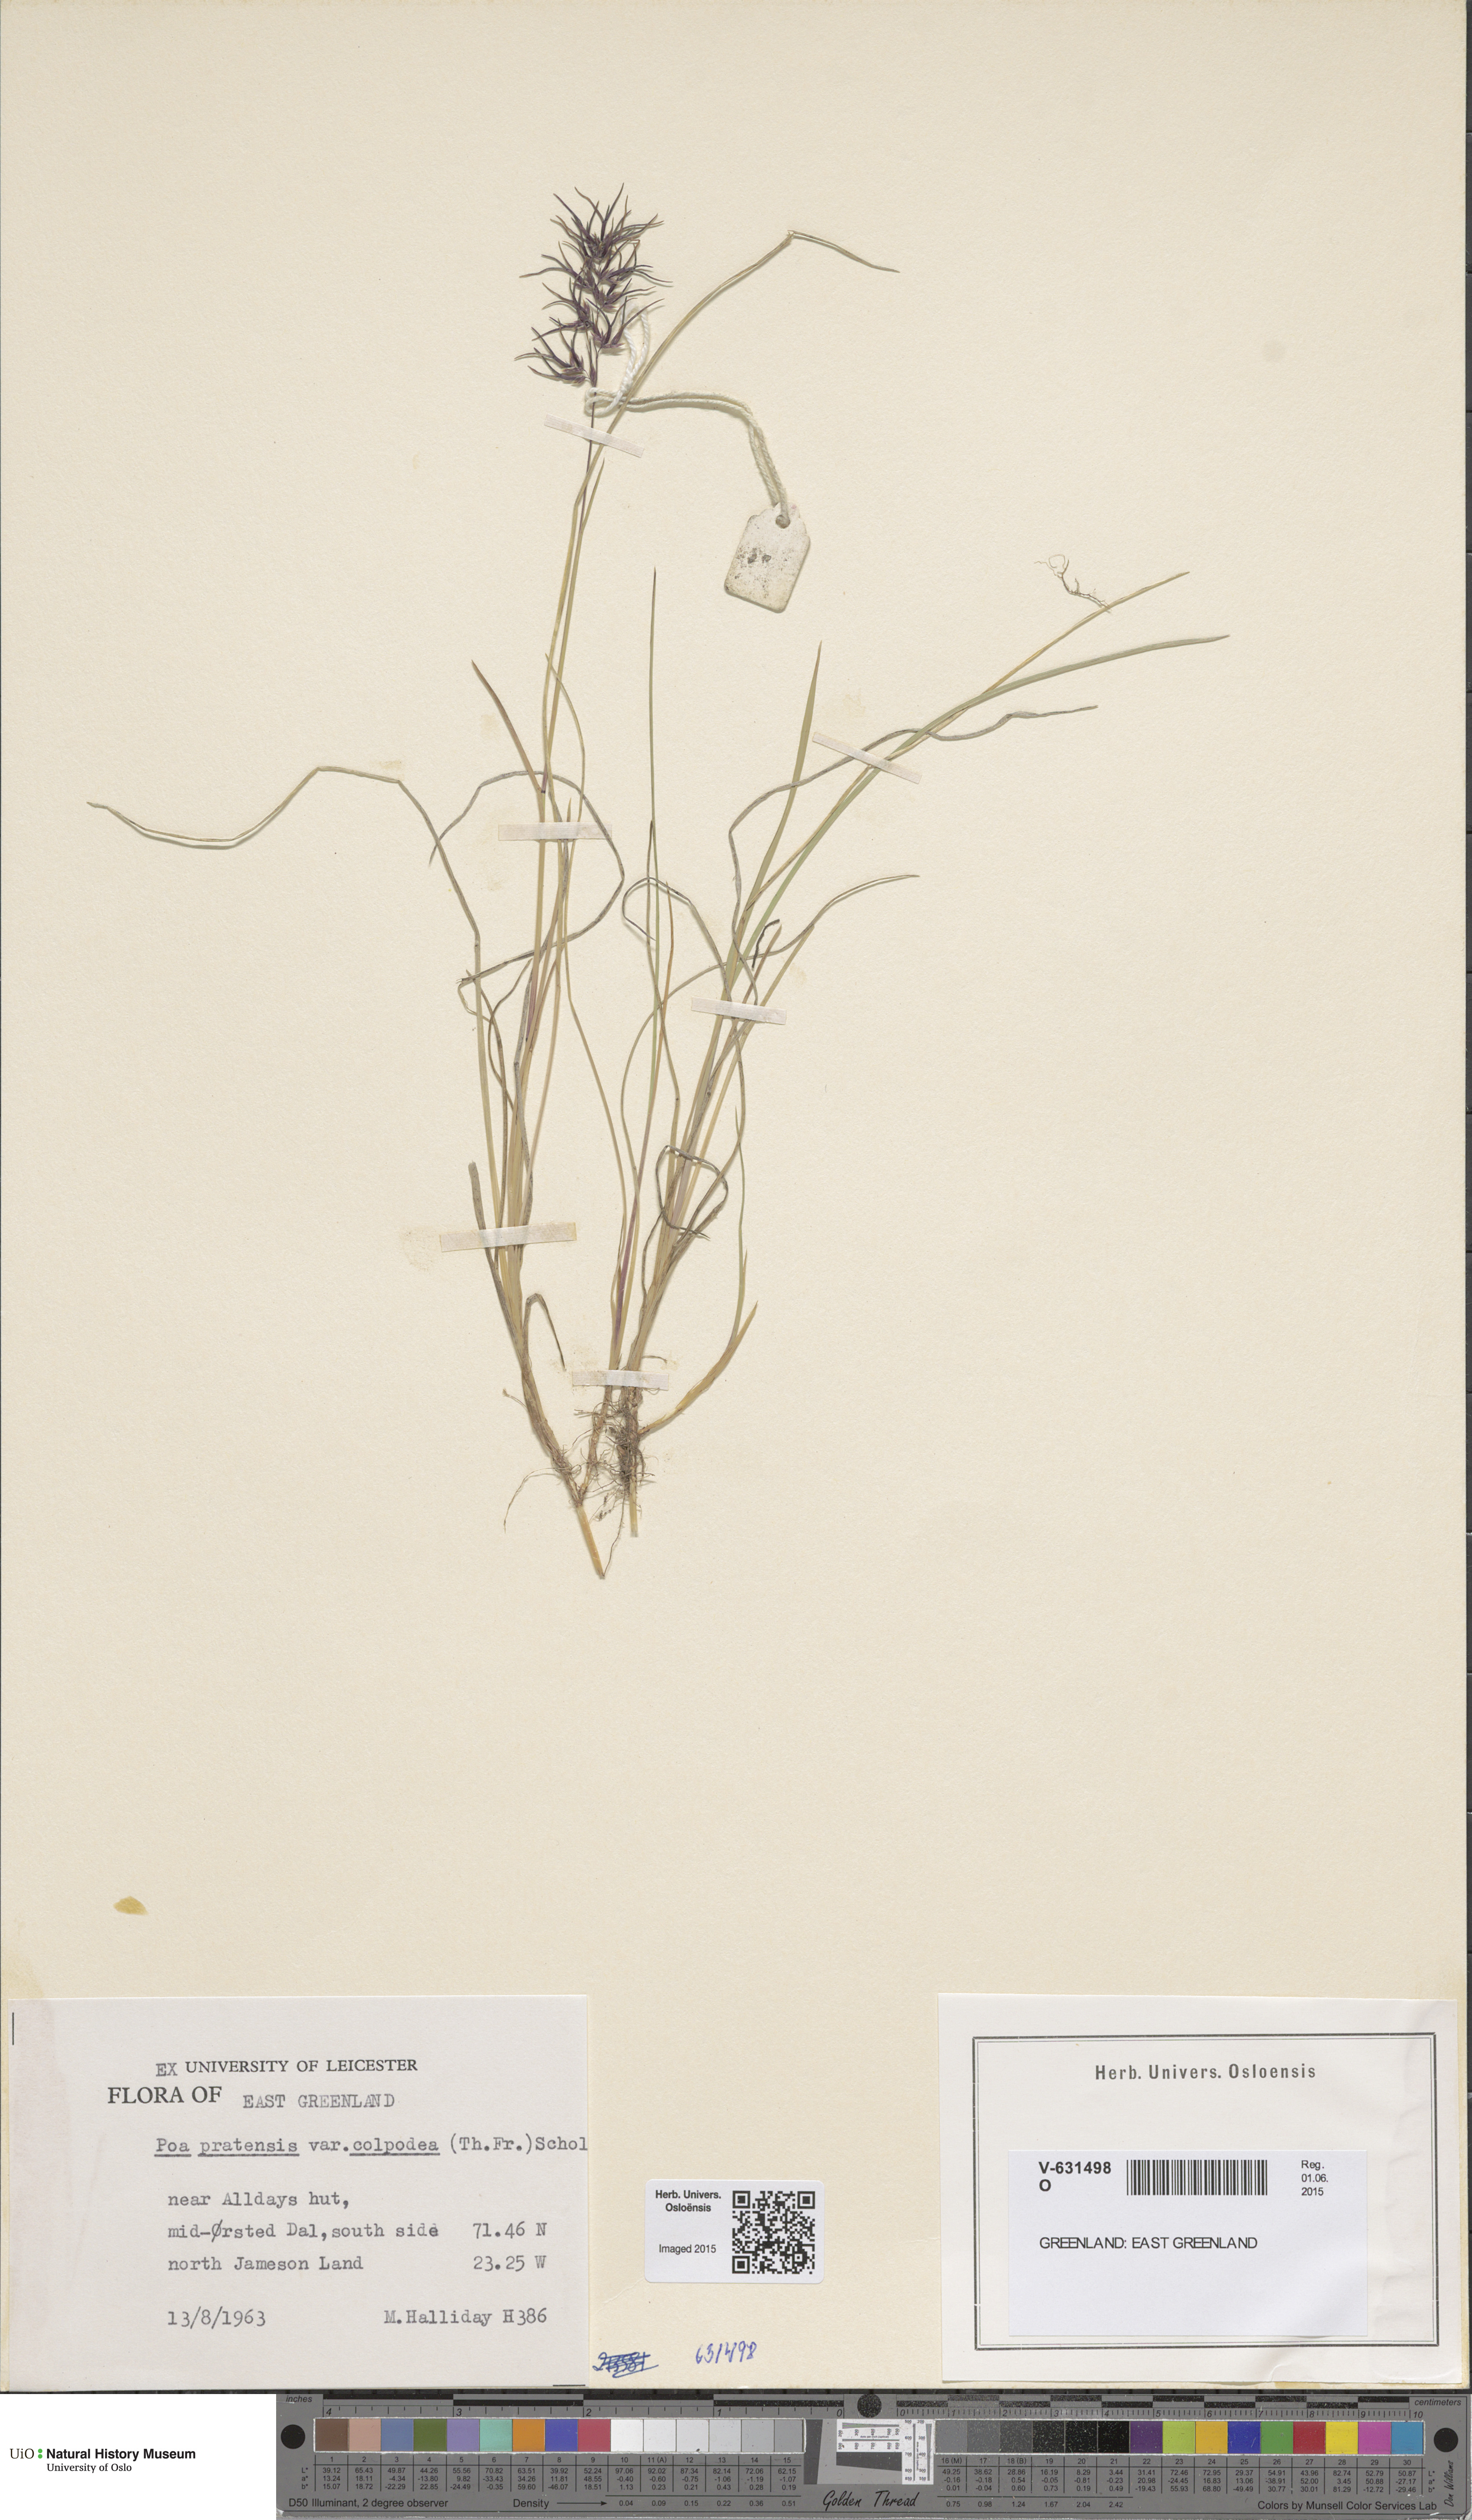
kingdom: Plantae
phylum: Tracheophyta
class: Liliopsida
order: Poales
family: Poaceae
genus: Poa
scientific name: Poa colpodea
